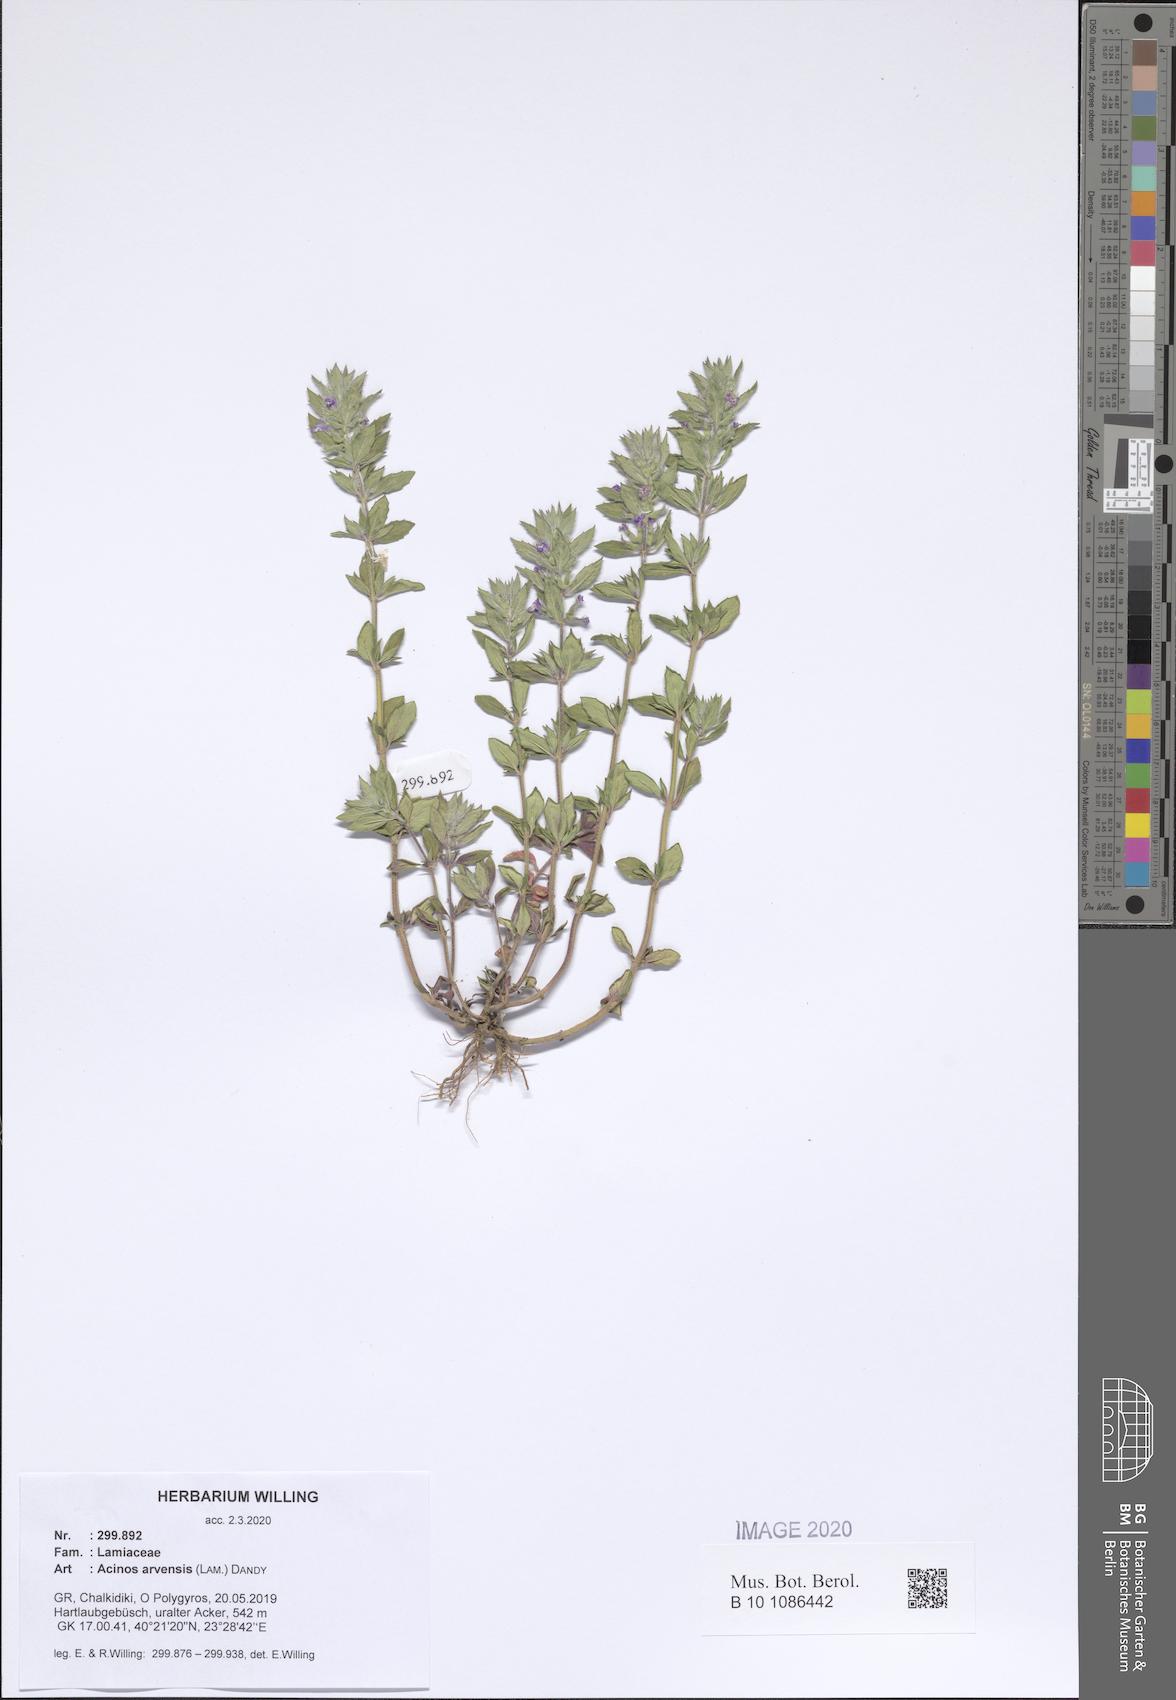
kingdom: Plantae
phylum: Tracheophyta
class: Magnoliopsida
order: Lamiales
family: Lamiaceae
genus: Clinopodium
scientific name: Clinopodium acinos
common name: Basil thyme
